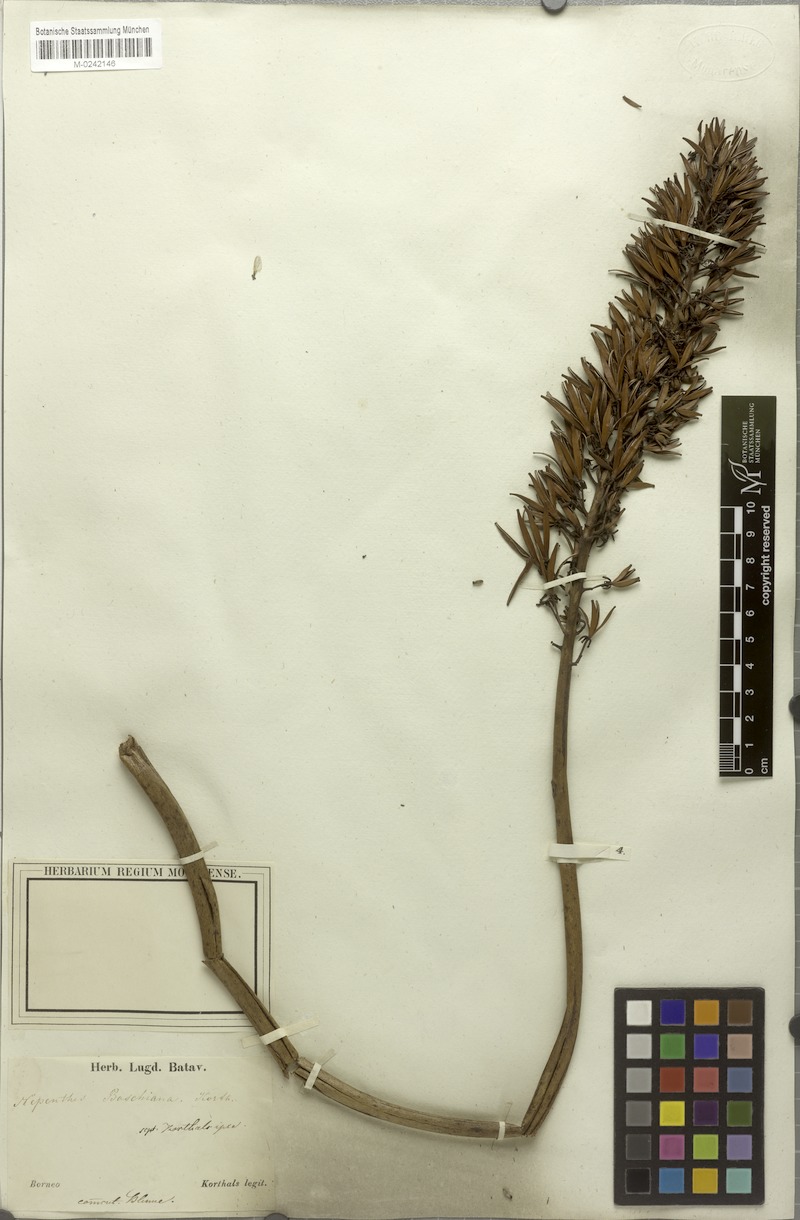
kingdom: Plantae
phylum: Tracheophyta
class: Magnoliopsida
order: Caryophyllales
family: Nepenthaceae
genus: Nepenthes
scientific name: Nepenthes boschiana
